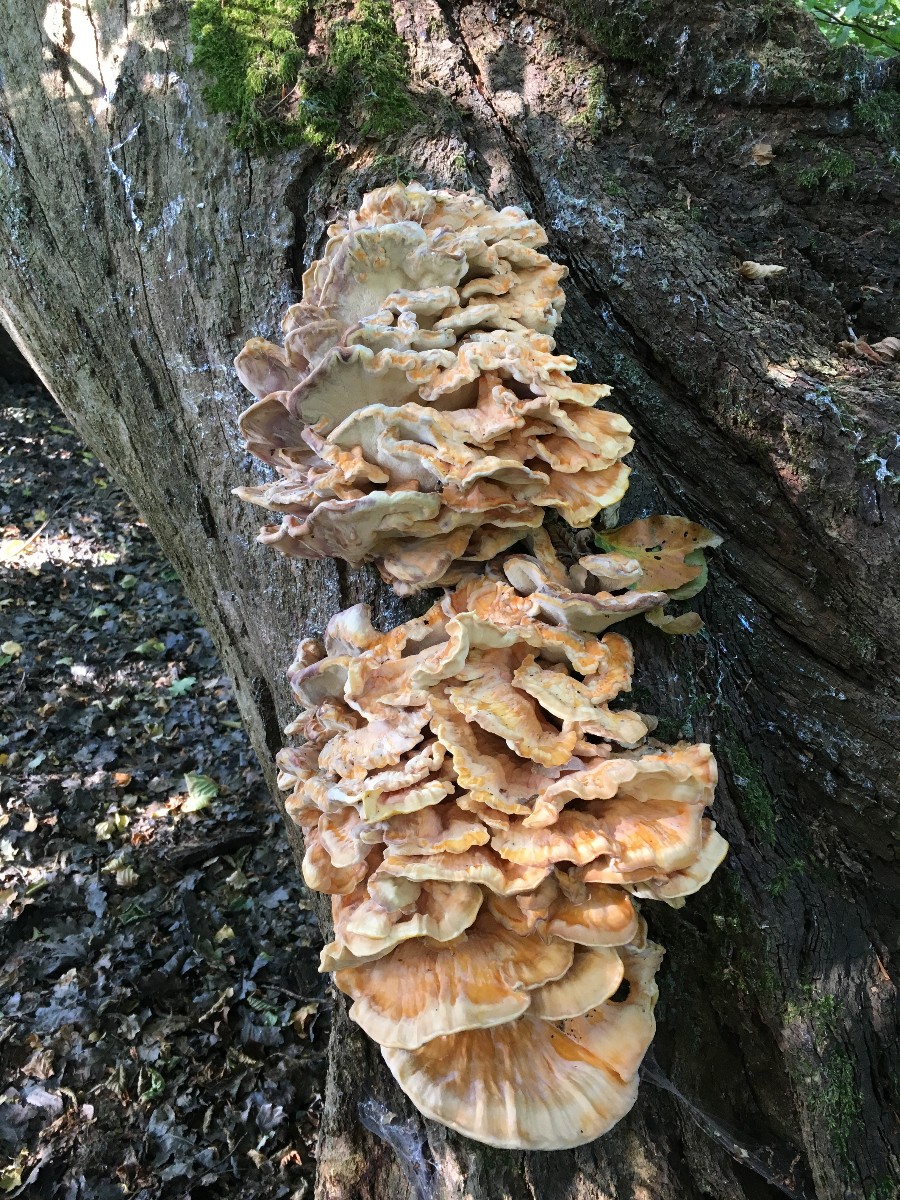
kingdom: Fungi
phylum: Basidiomycota
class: Agaricomycetes
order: Polyporales
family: Laetiporaceae
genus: Laetiporus
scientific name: Laetiporus sulphureus
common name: svovlporesvamp
